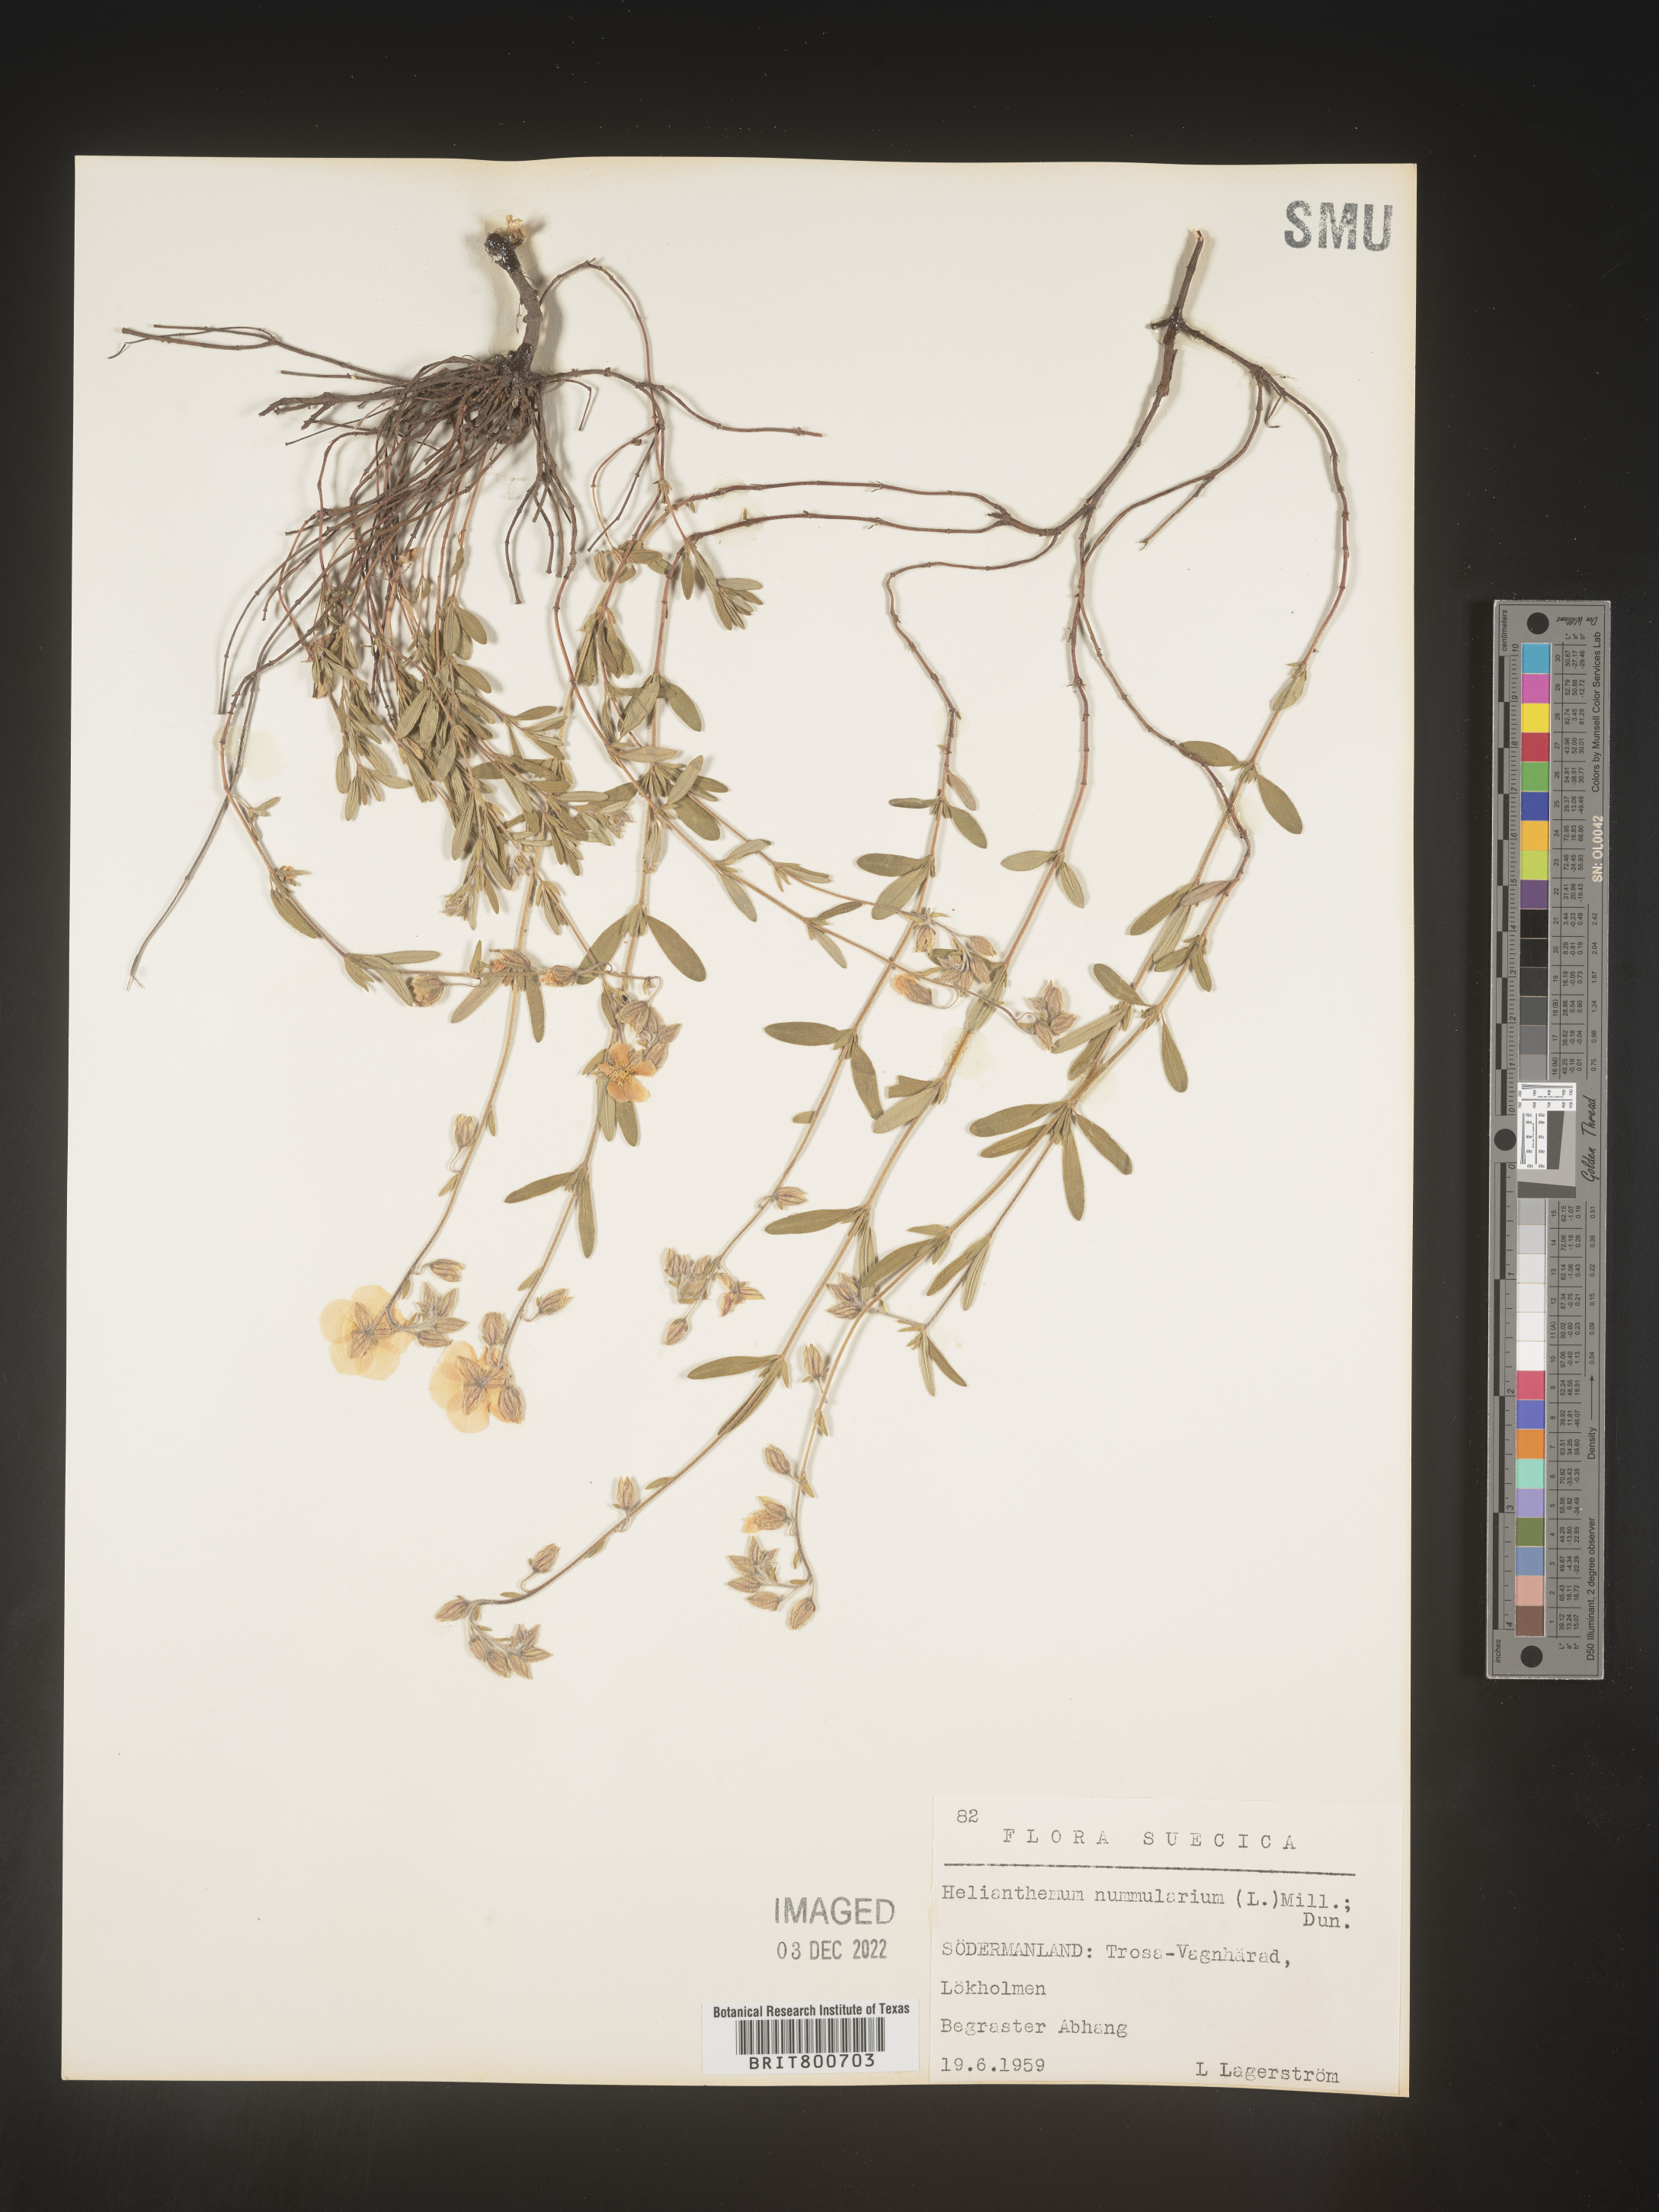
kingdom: Plantae
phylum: Tracheophyta
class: Magnoliopsida
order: Malvales
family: Cistaceae
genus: Helianthemum
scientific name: Helianthemum
